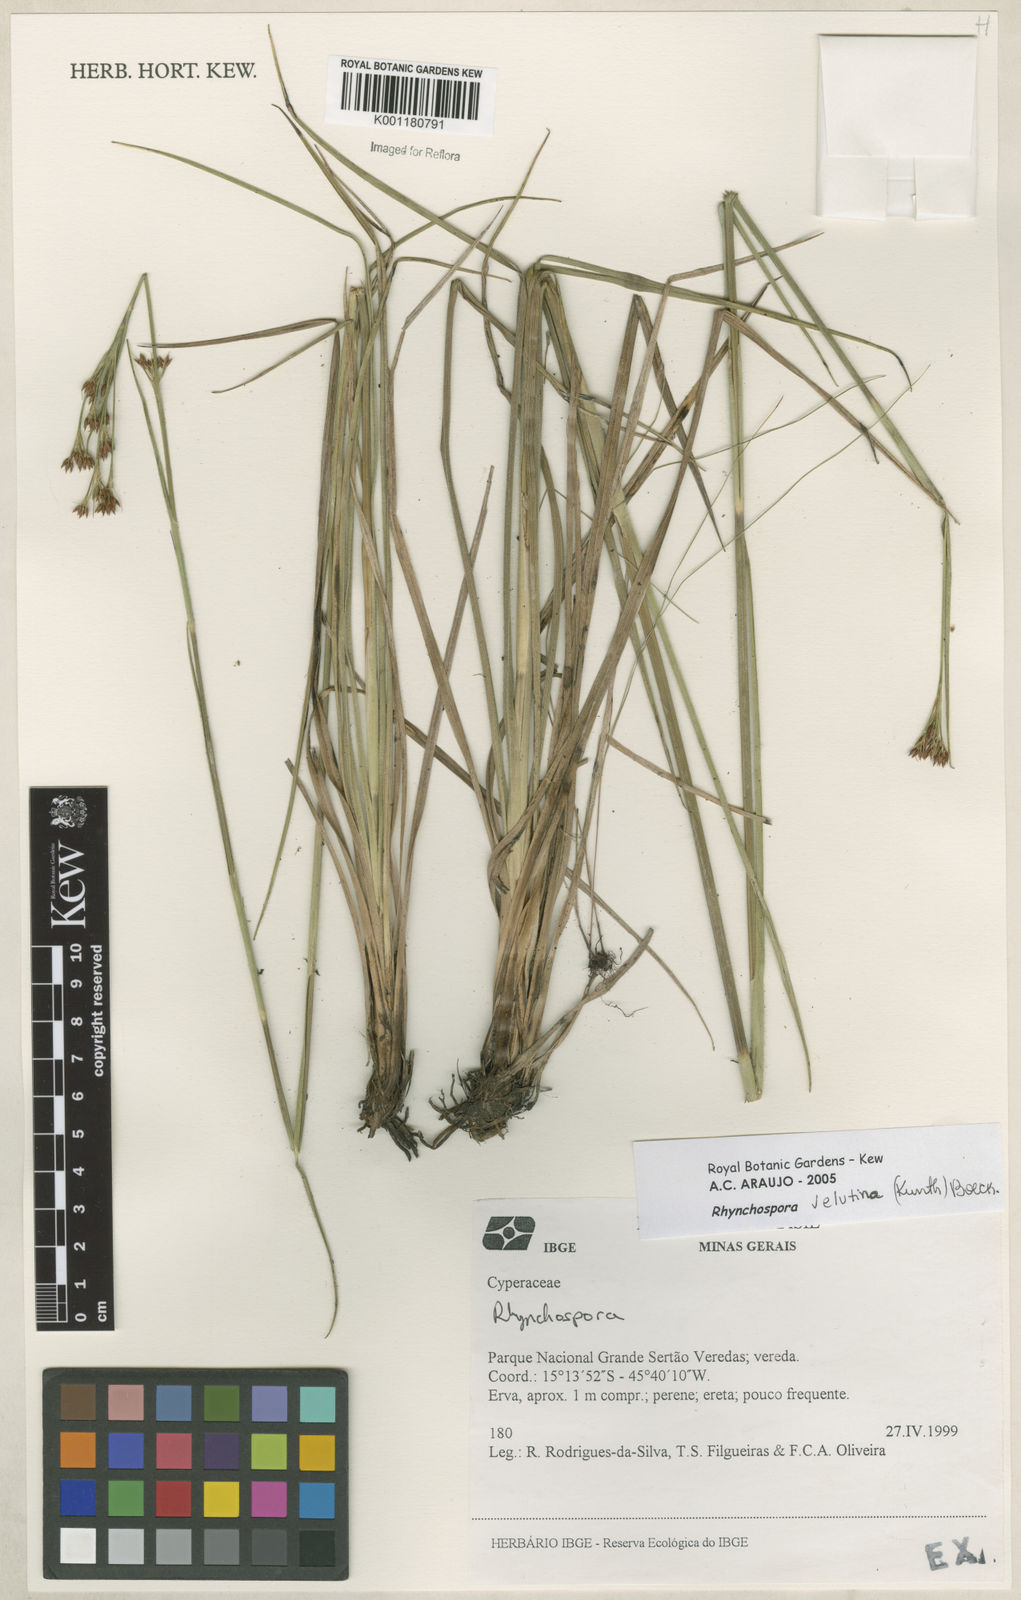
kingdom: Plantae
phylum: Tracheophyta
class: Liliopsida
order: Poales
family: Cyperaceae
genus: Rhynchospora
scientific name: Rhynchospora velutina
